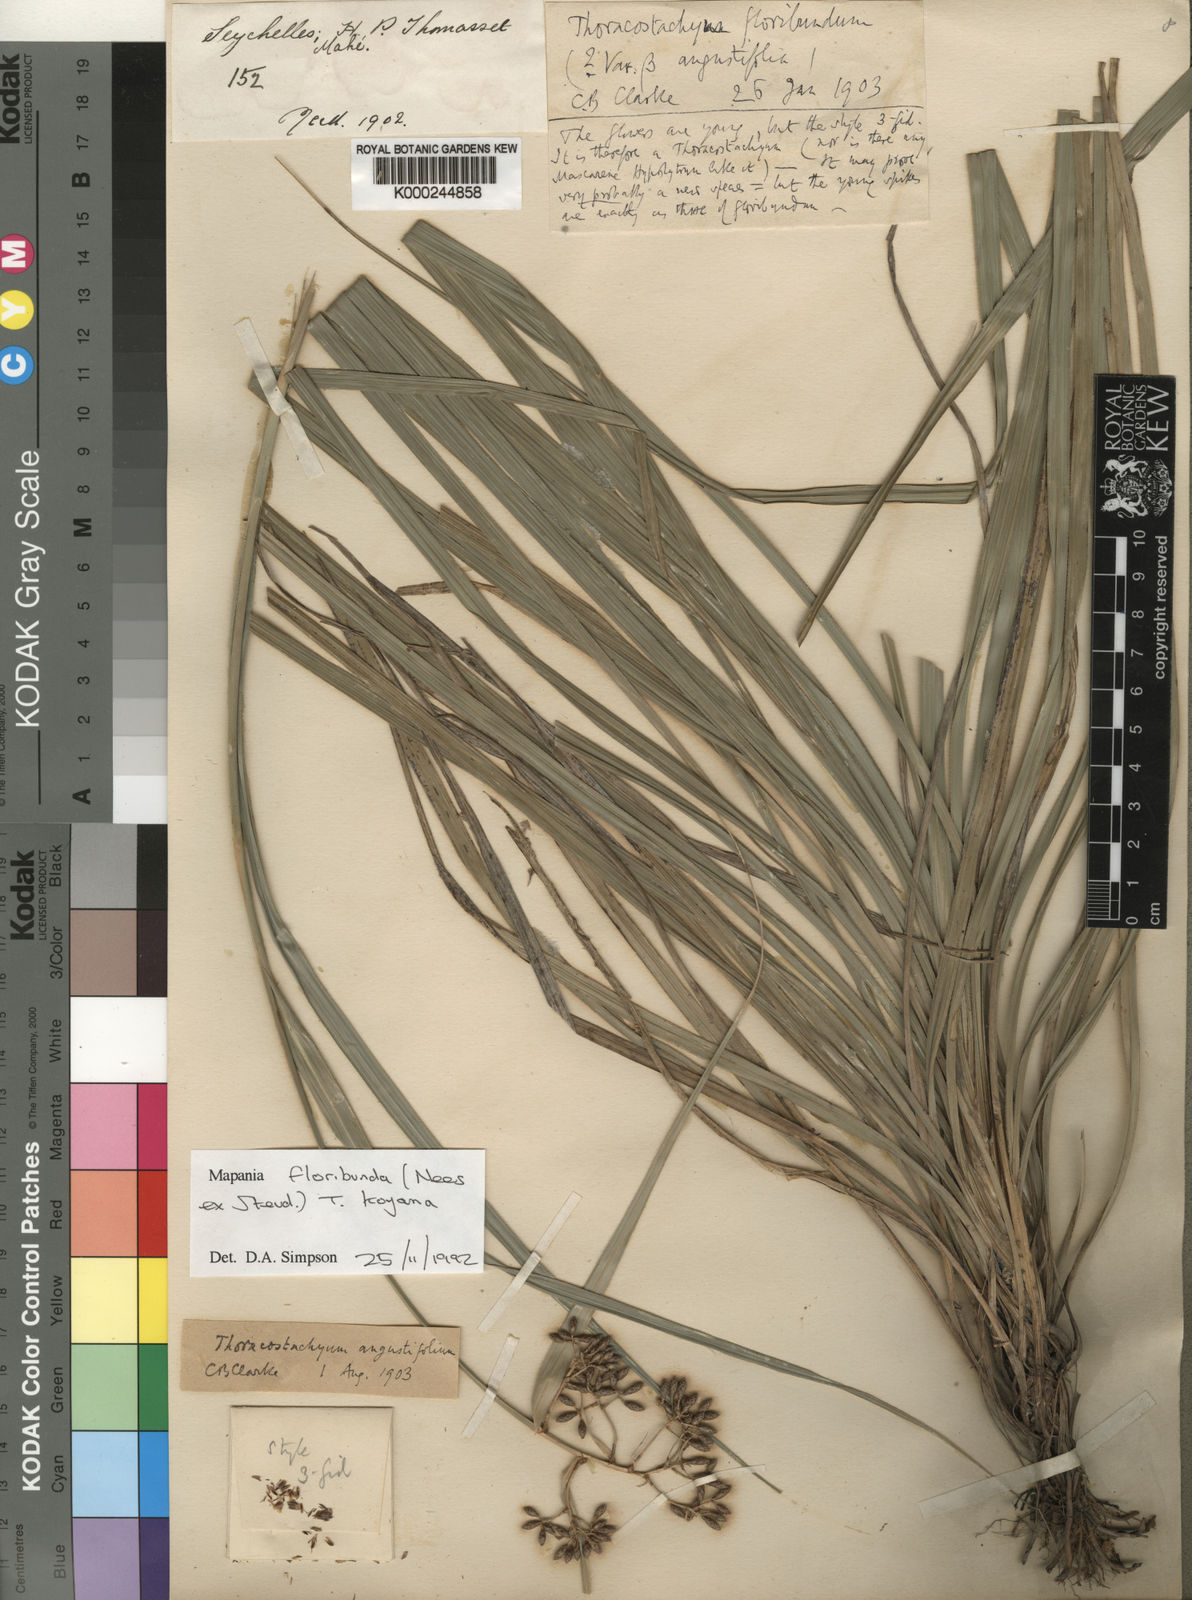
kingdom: Plantae
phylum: Tracheophyta
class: Liliopsida
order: Poales
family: Cyperaceae
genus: Mapania
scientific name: Mapania floribunda
